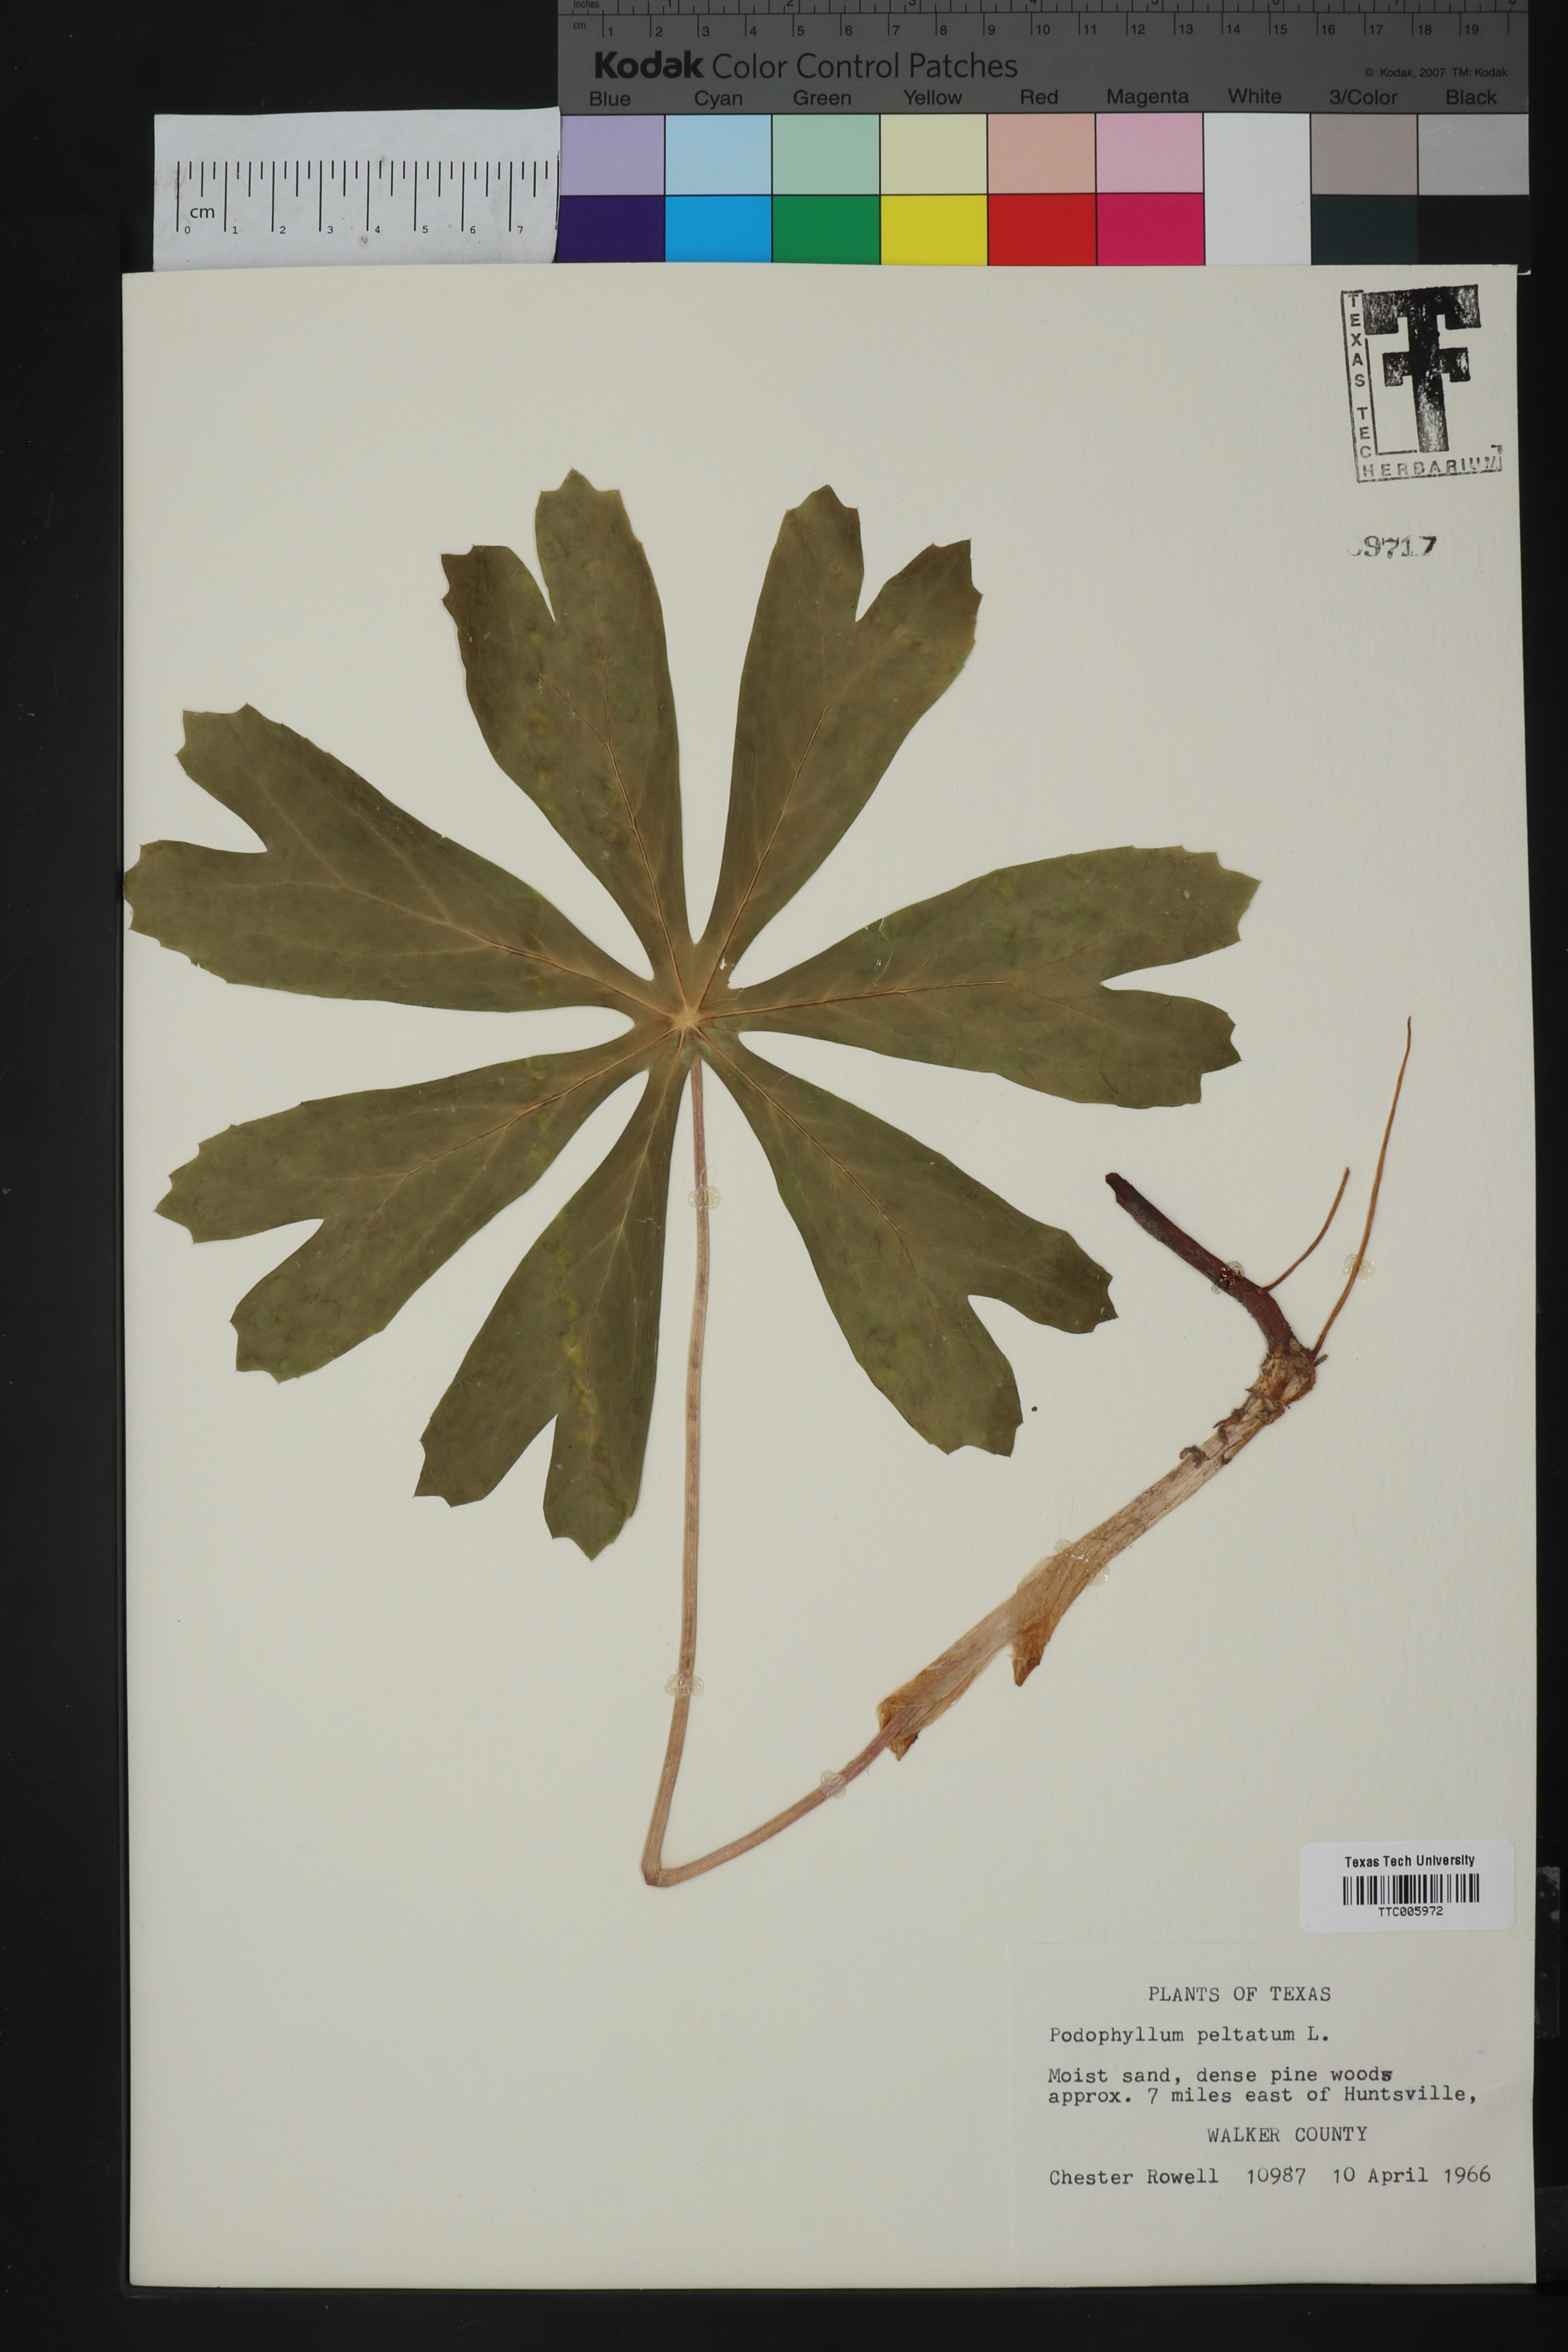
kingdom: Plantae
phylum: Tracheophyta
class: Magnoliopsida
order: Ranunculales
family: Berberidaceae
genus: Podophyllum
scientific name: Podophyllum peltatum
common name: Wild mandrake
